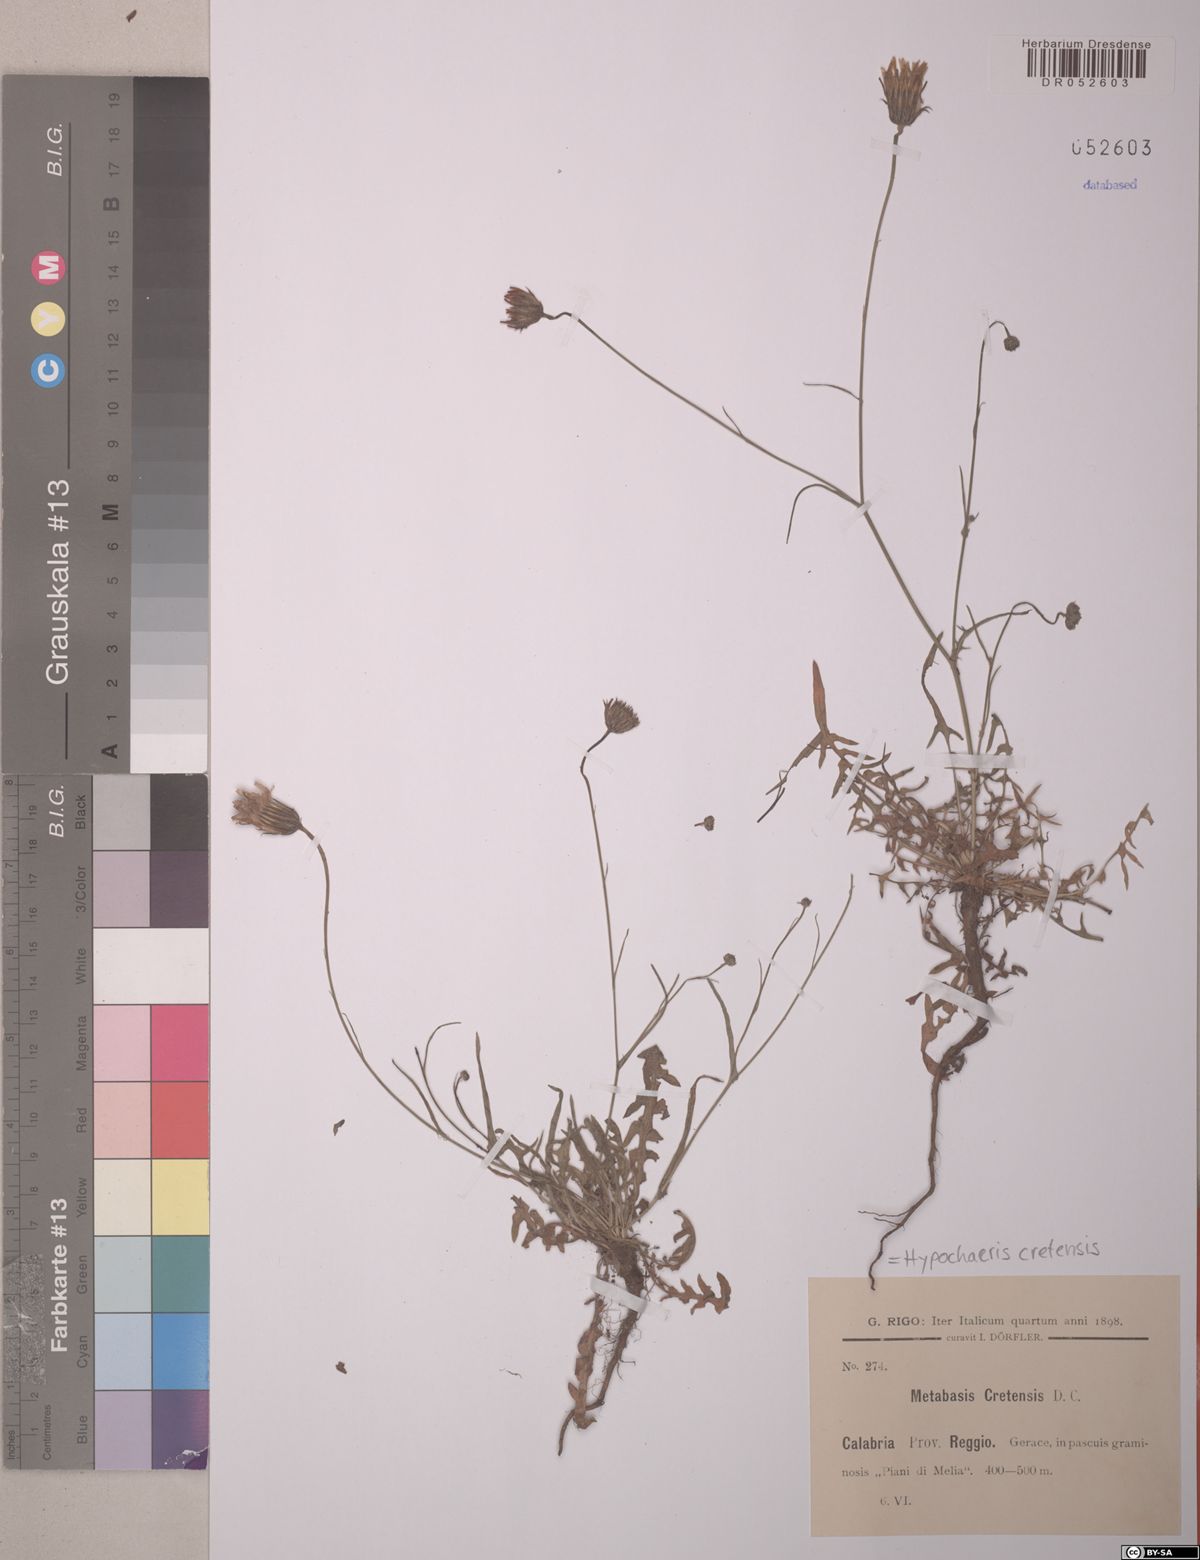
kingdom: Plantae
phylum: Tracheophyta
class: Magnoliopsida
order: Asterales
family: Asteraceae
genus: Hypochaeris
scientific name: Hypochaeris cretensis
